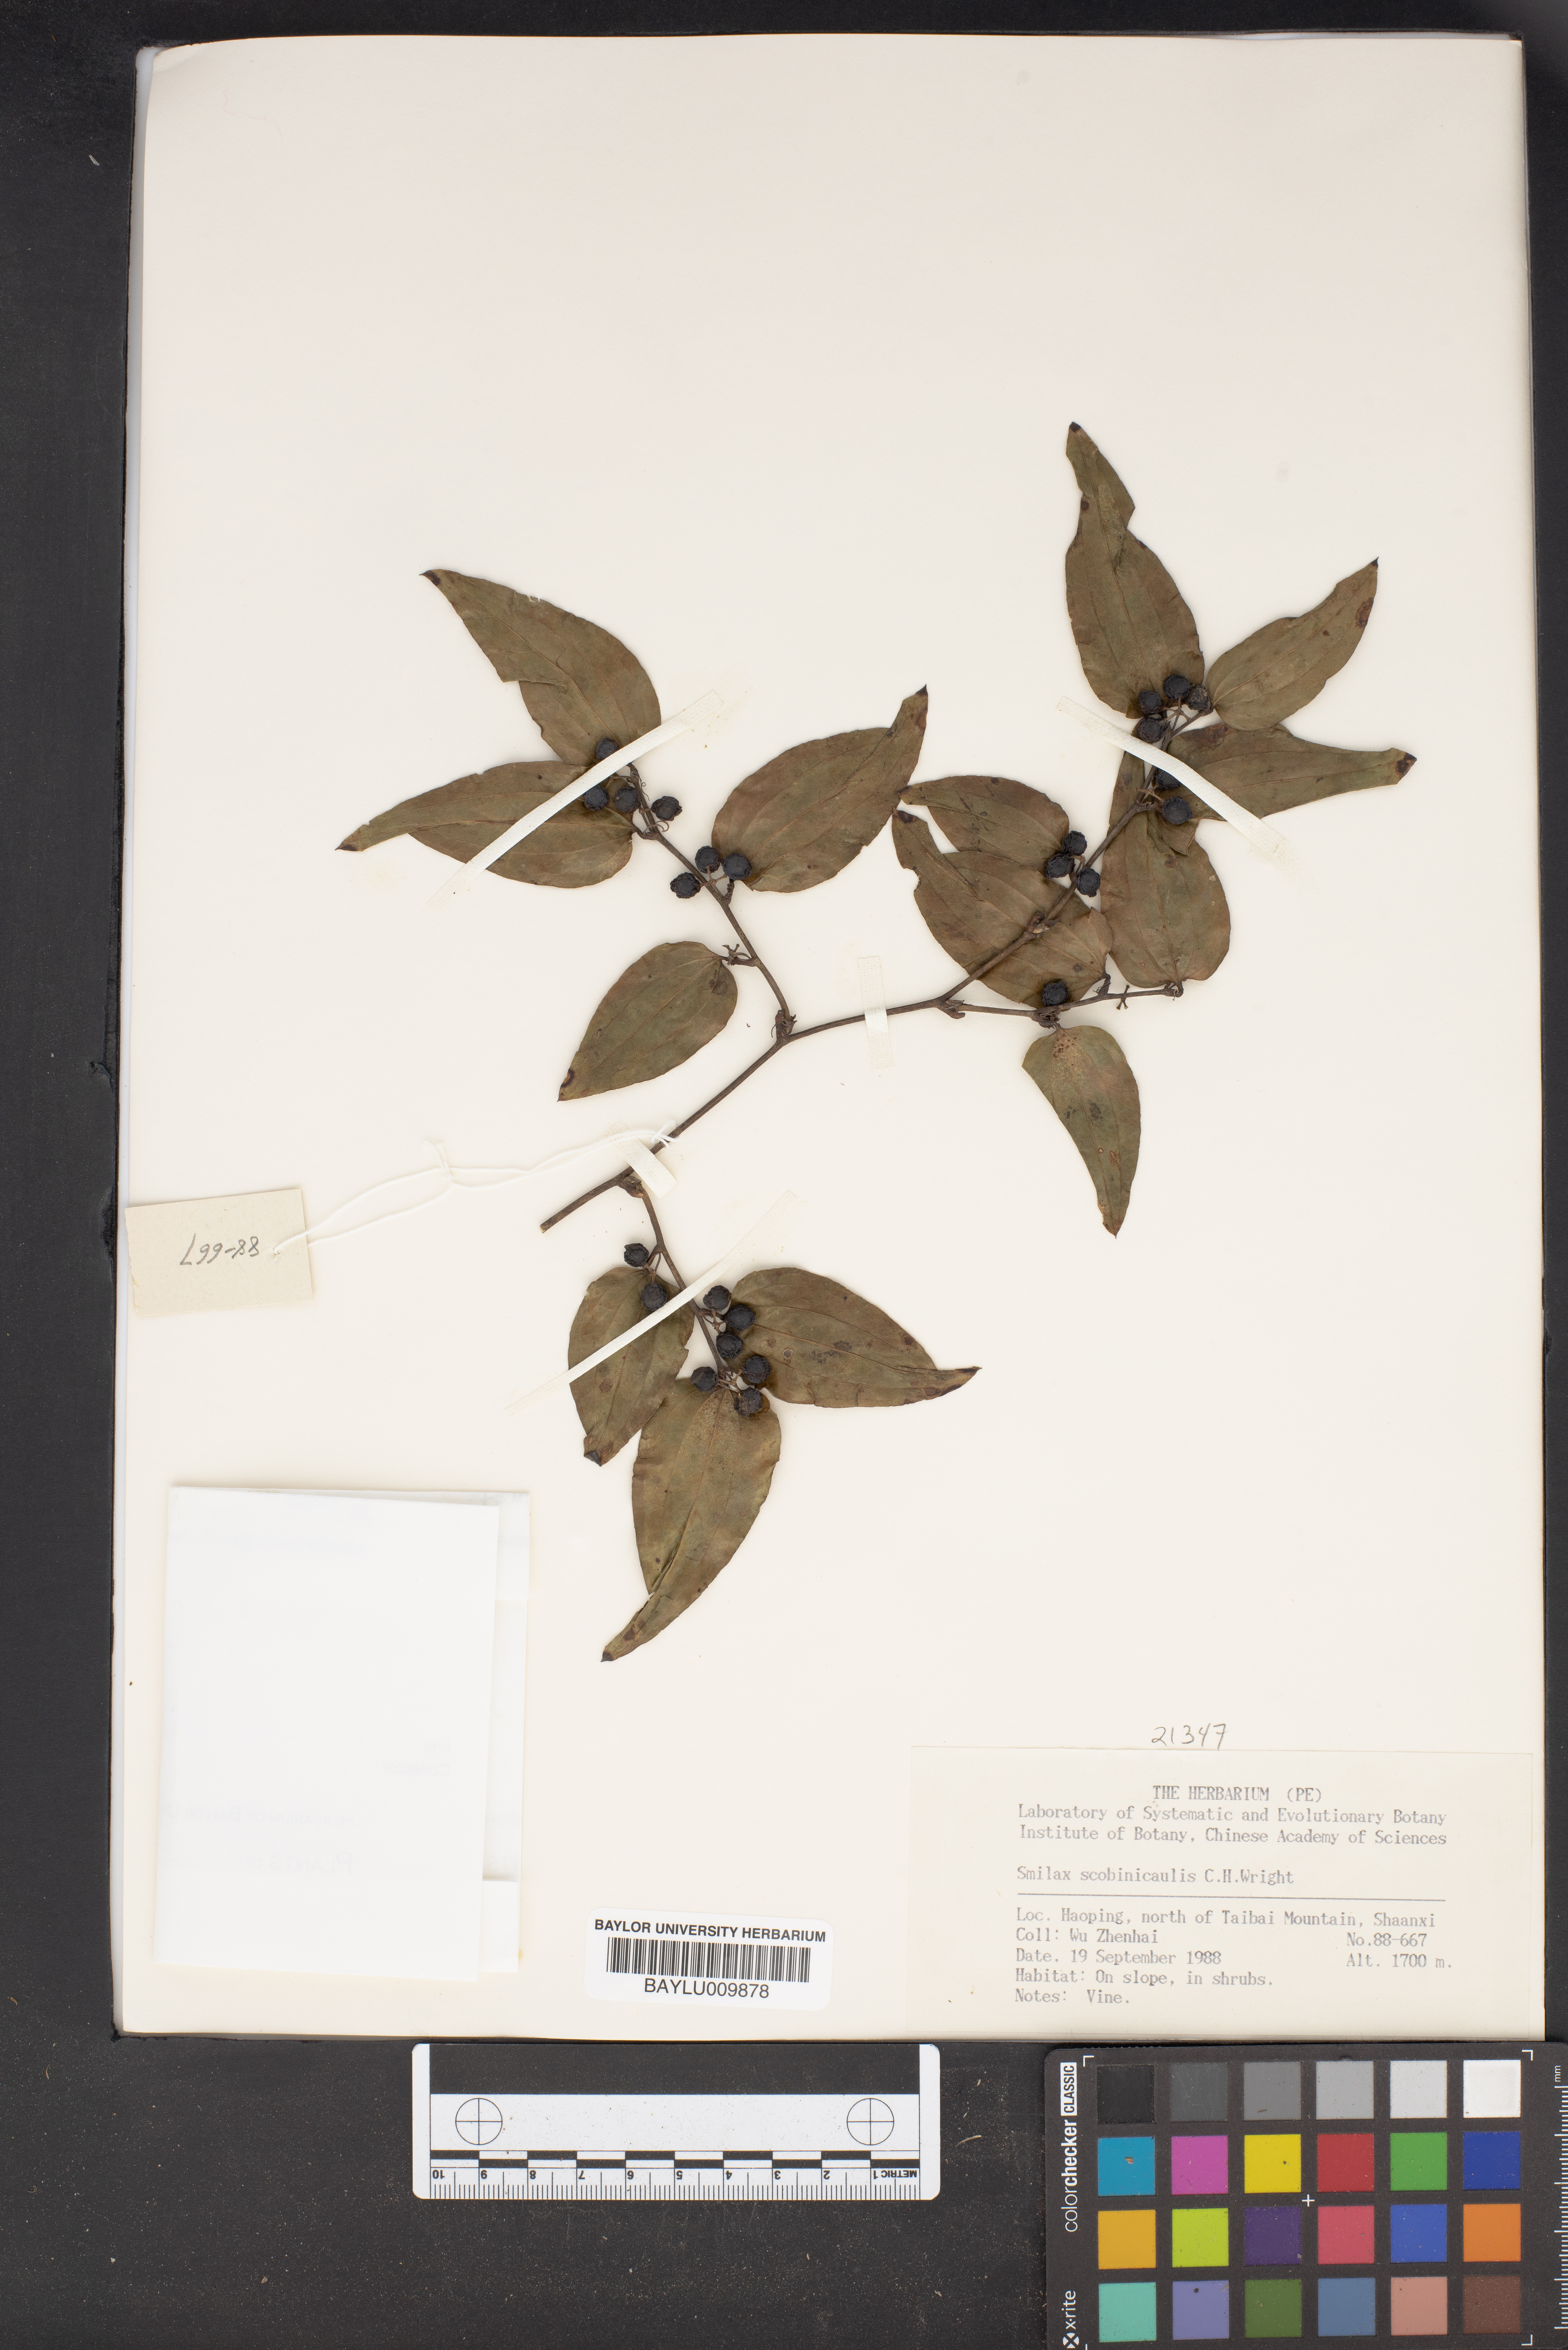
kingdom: Plantae
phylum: Tracheophyta
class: Liliopsida
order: Liliales
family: Smilacaceae
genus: Smilax
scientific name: Smilax scobinicaulis
